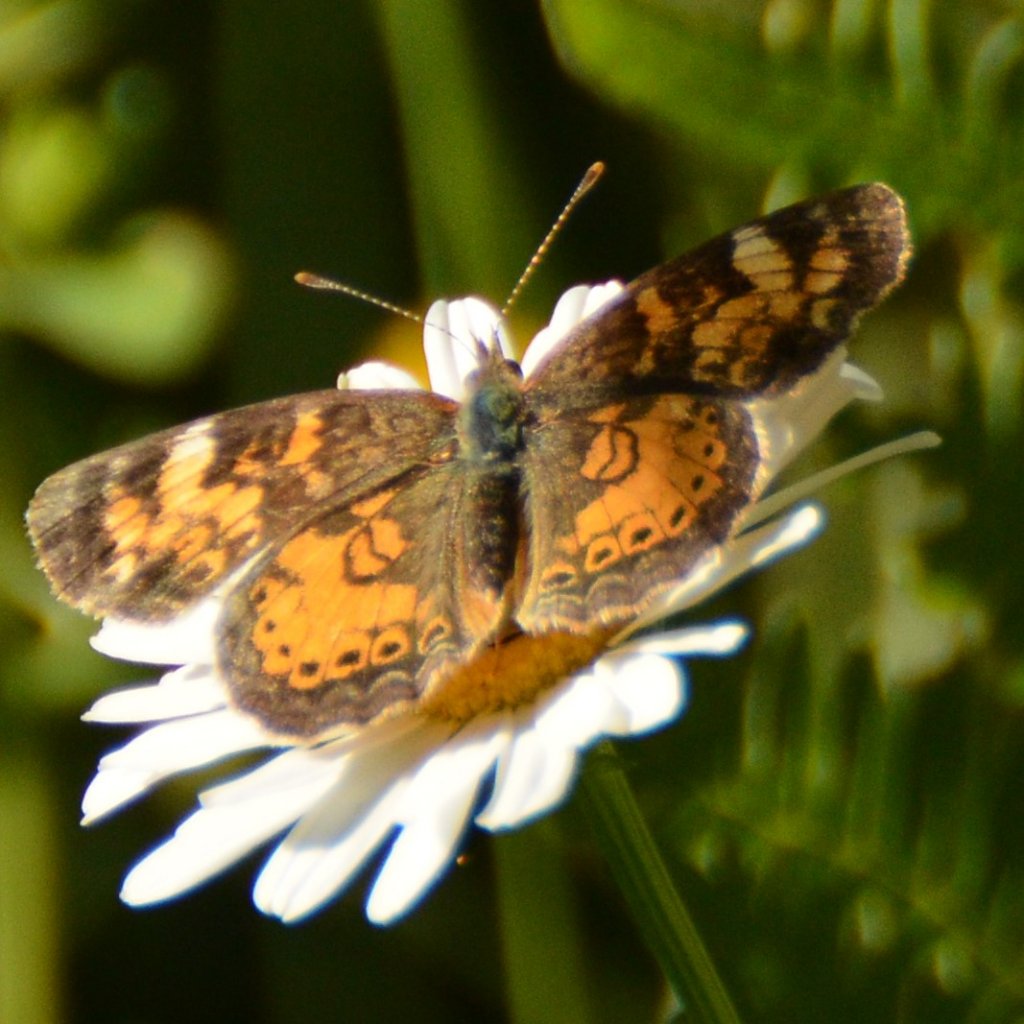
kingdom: Animalia
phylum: Arthropoda
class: Insecta
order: Lepidoptera
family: Nymphalidae
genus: Phyciodes
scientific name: Phyciodes tharos
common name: Northern Crescent
